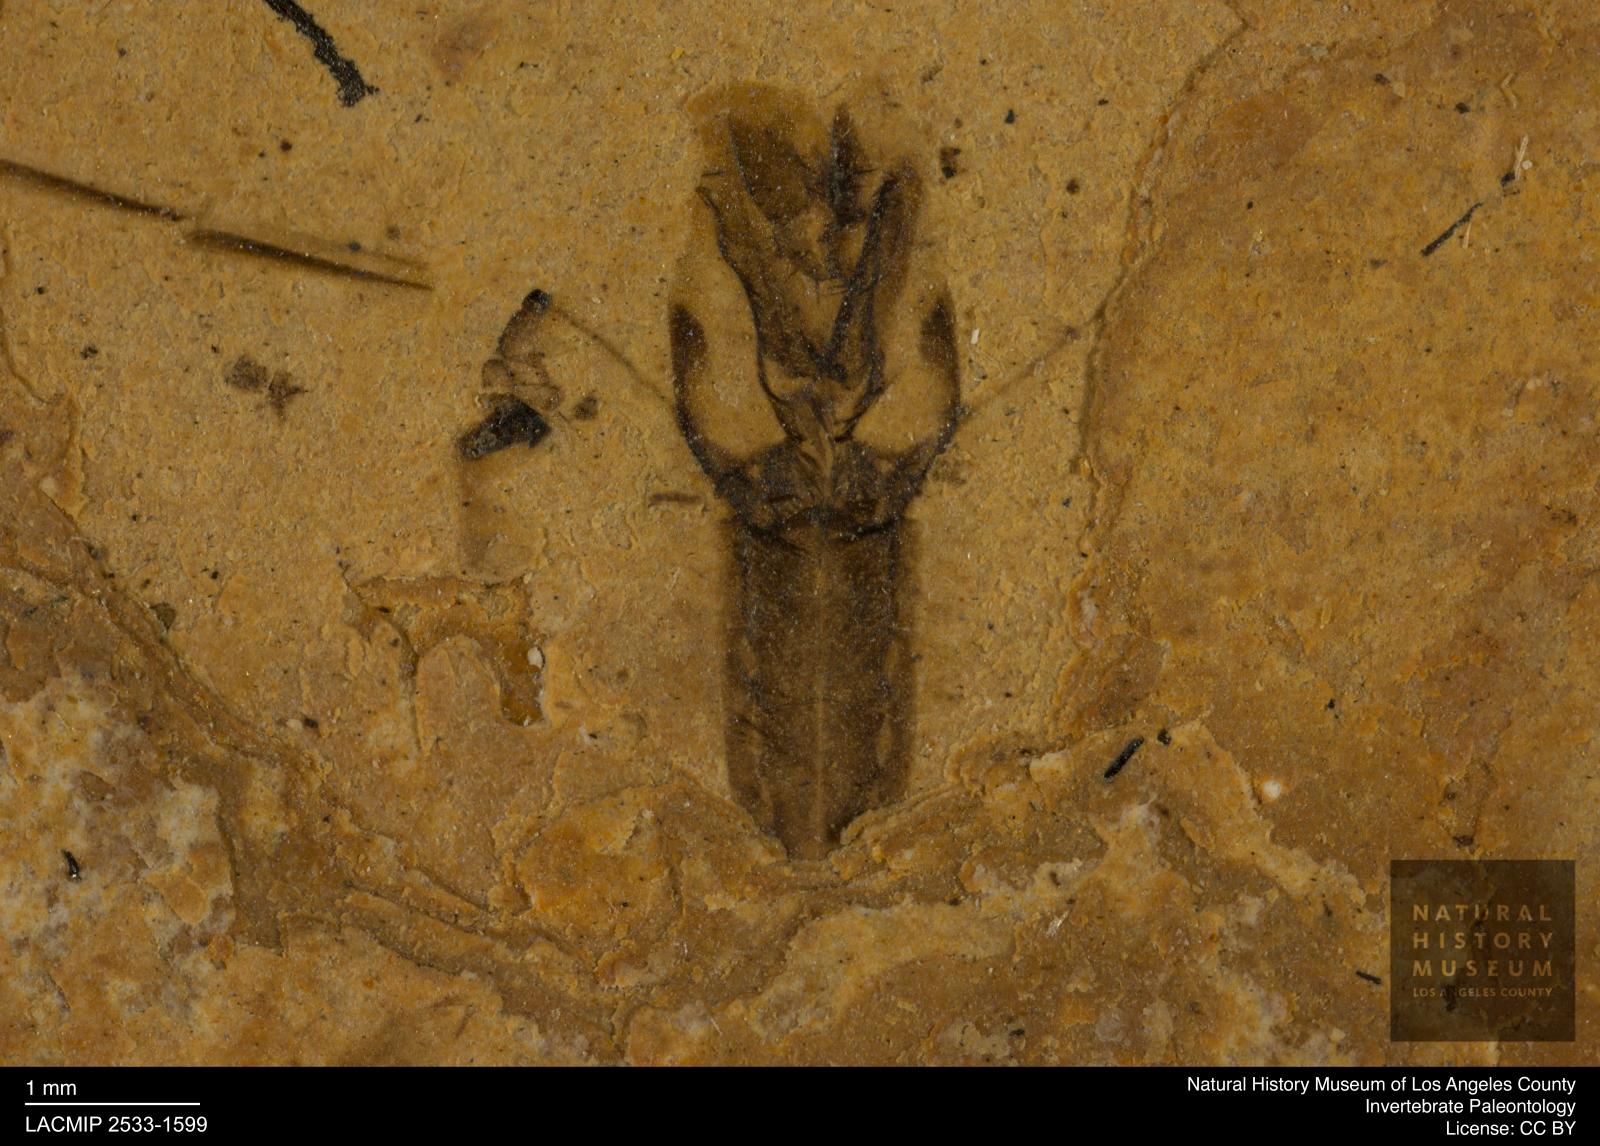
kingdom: Animalia
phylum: Arthropoda
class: Insecta
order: Hemiptera
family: Notonectidae
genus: Notonecta
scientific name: Notonecta
